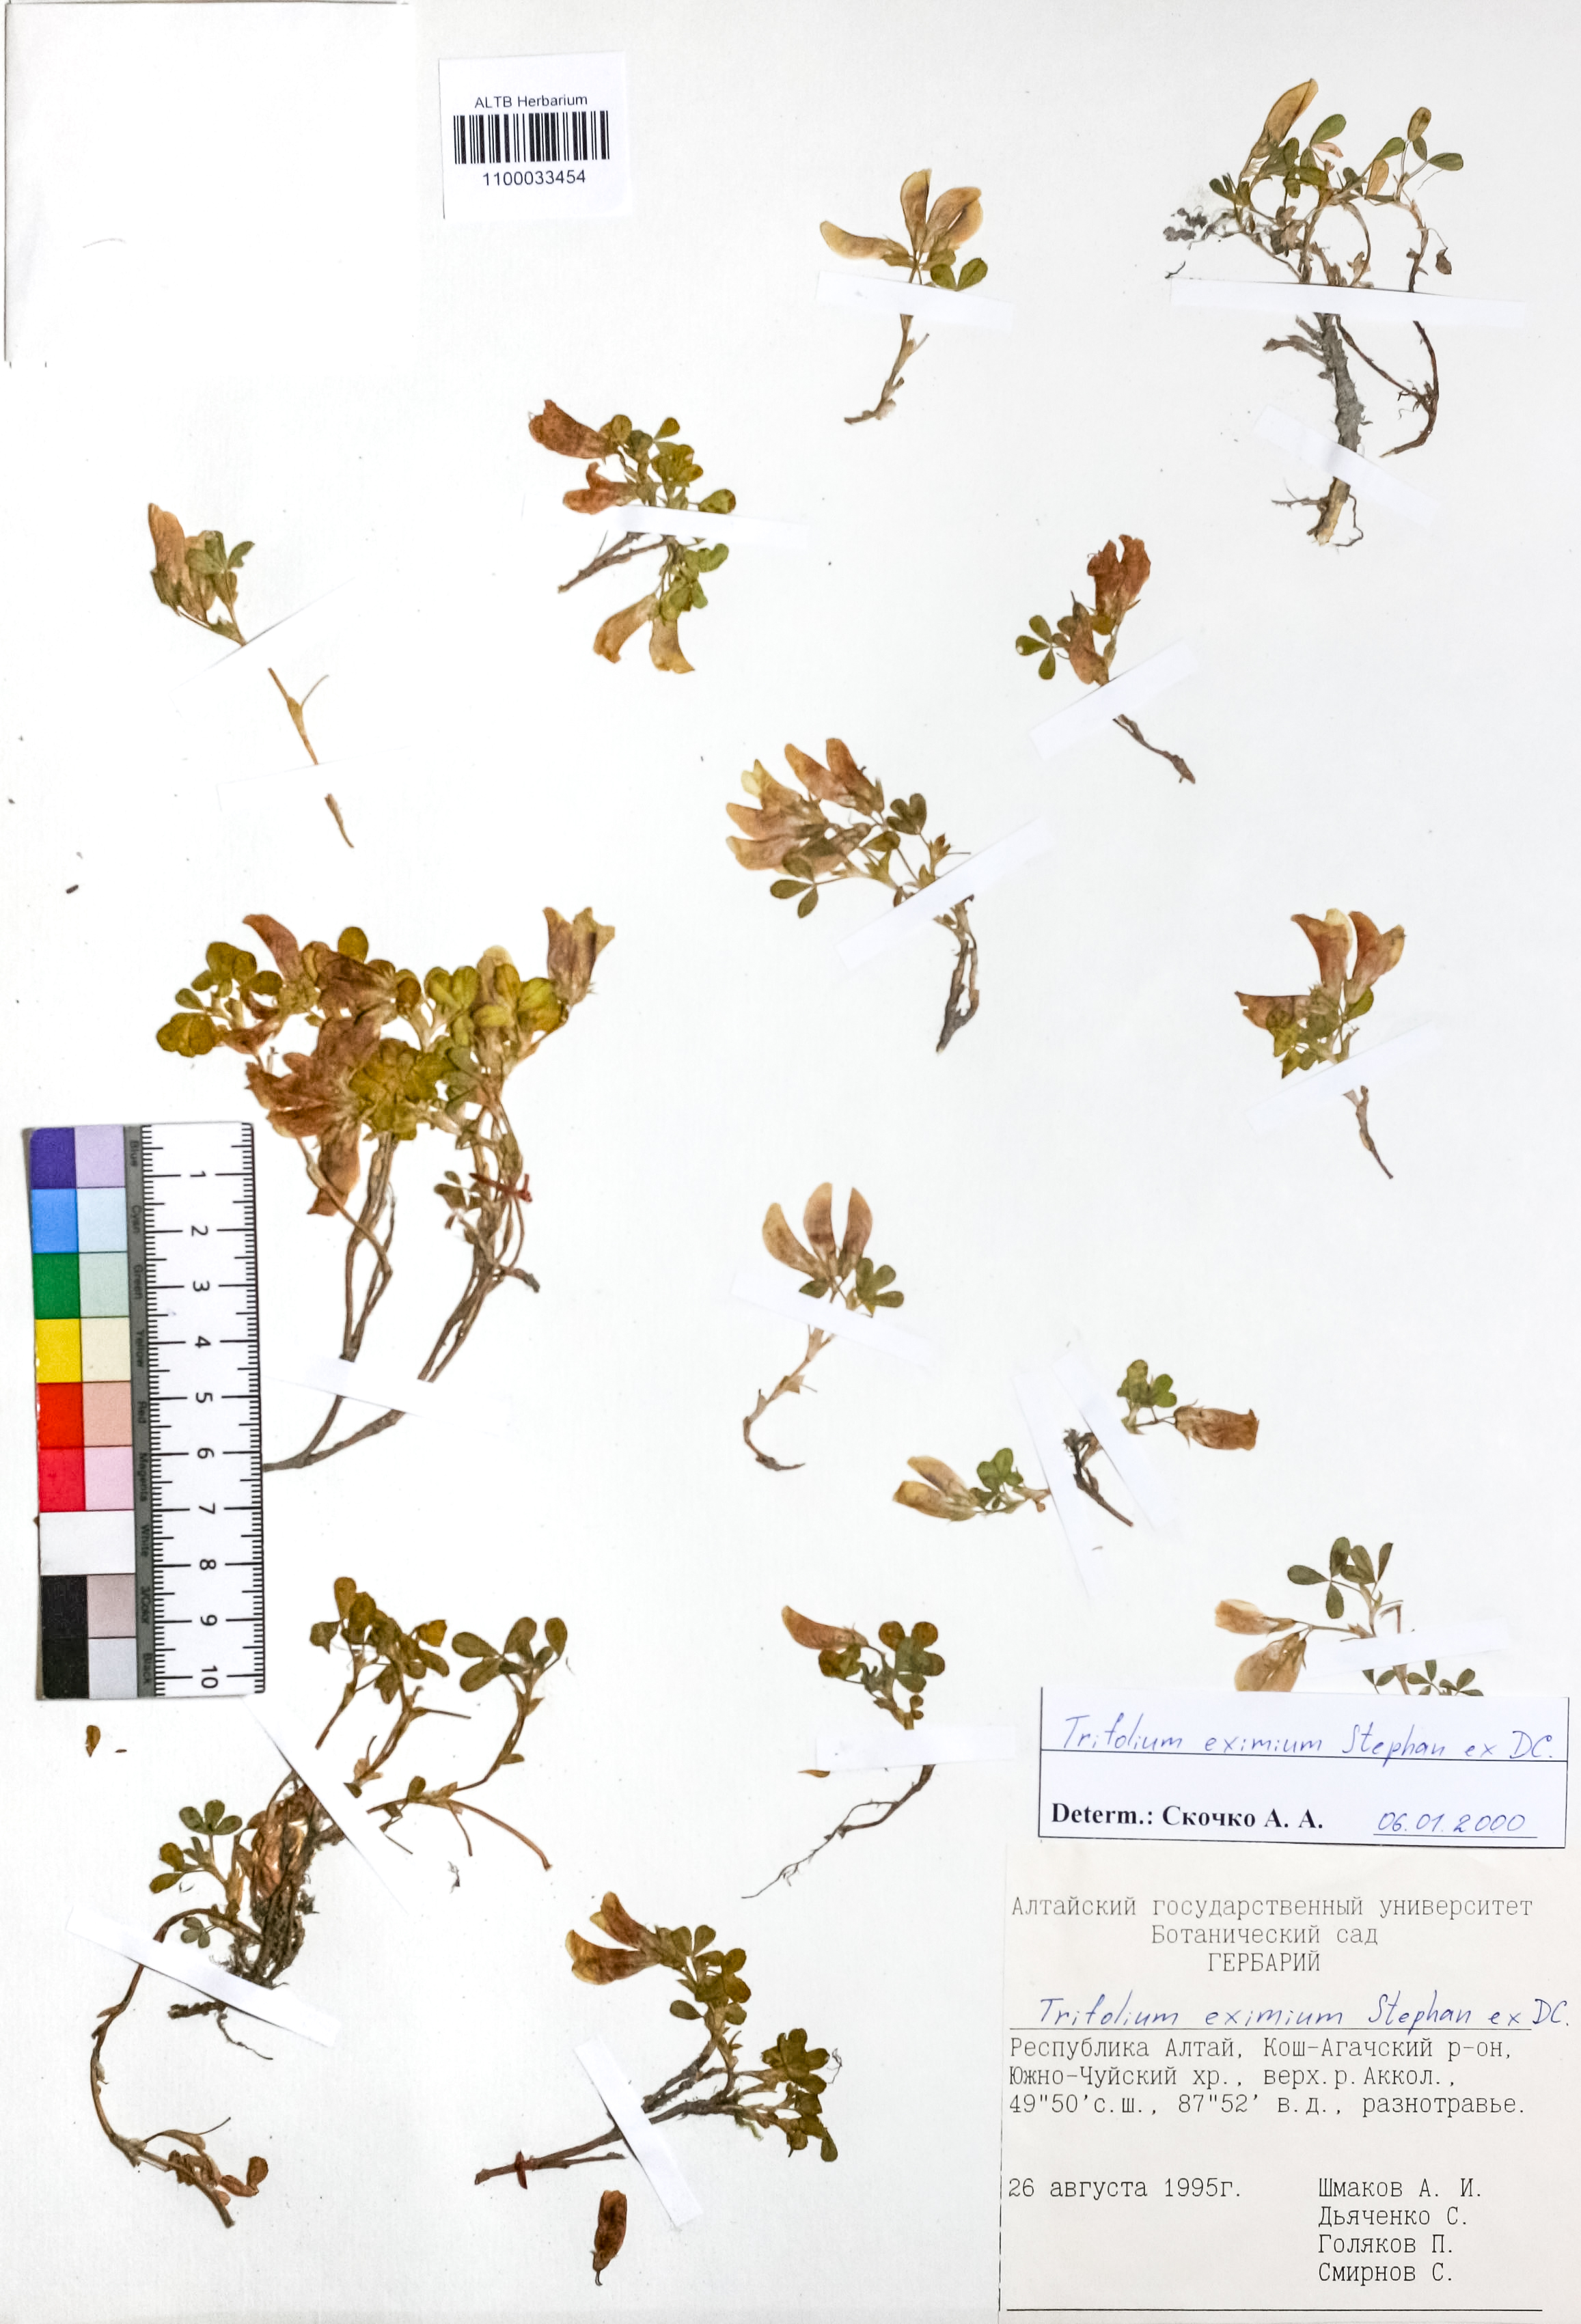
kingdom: Plantae
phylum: Tracheophyta
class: Magnoliopsida
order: Fabales
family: Fabaceae
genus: Trifolium
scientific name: Trifolium eximium
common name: Excellent clover
